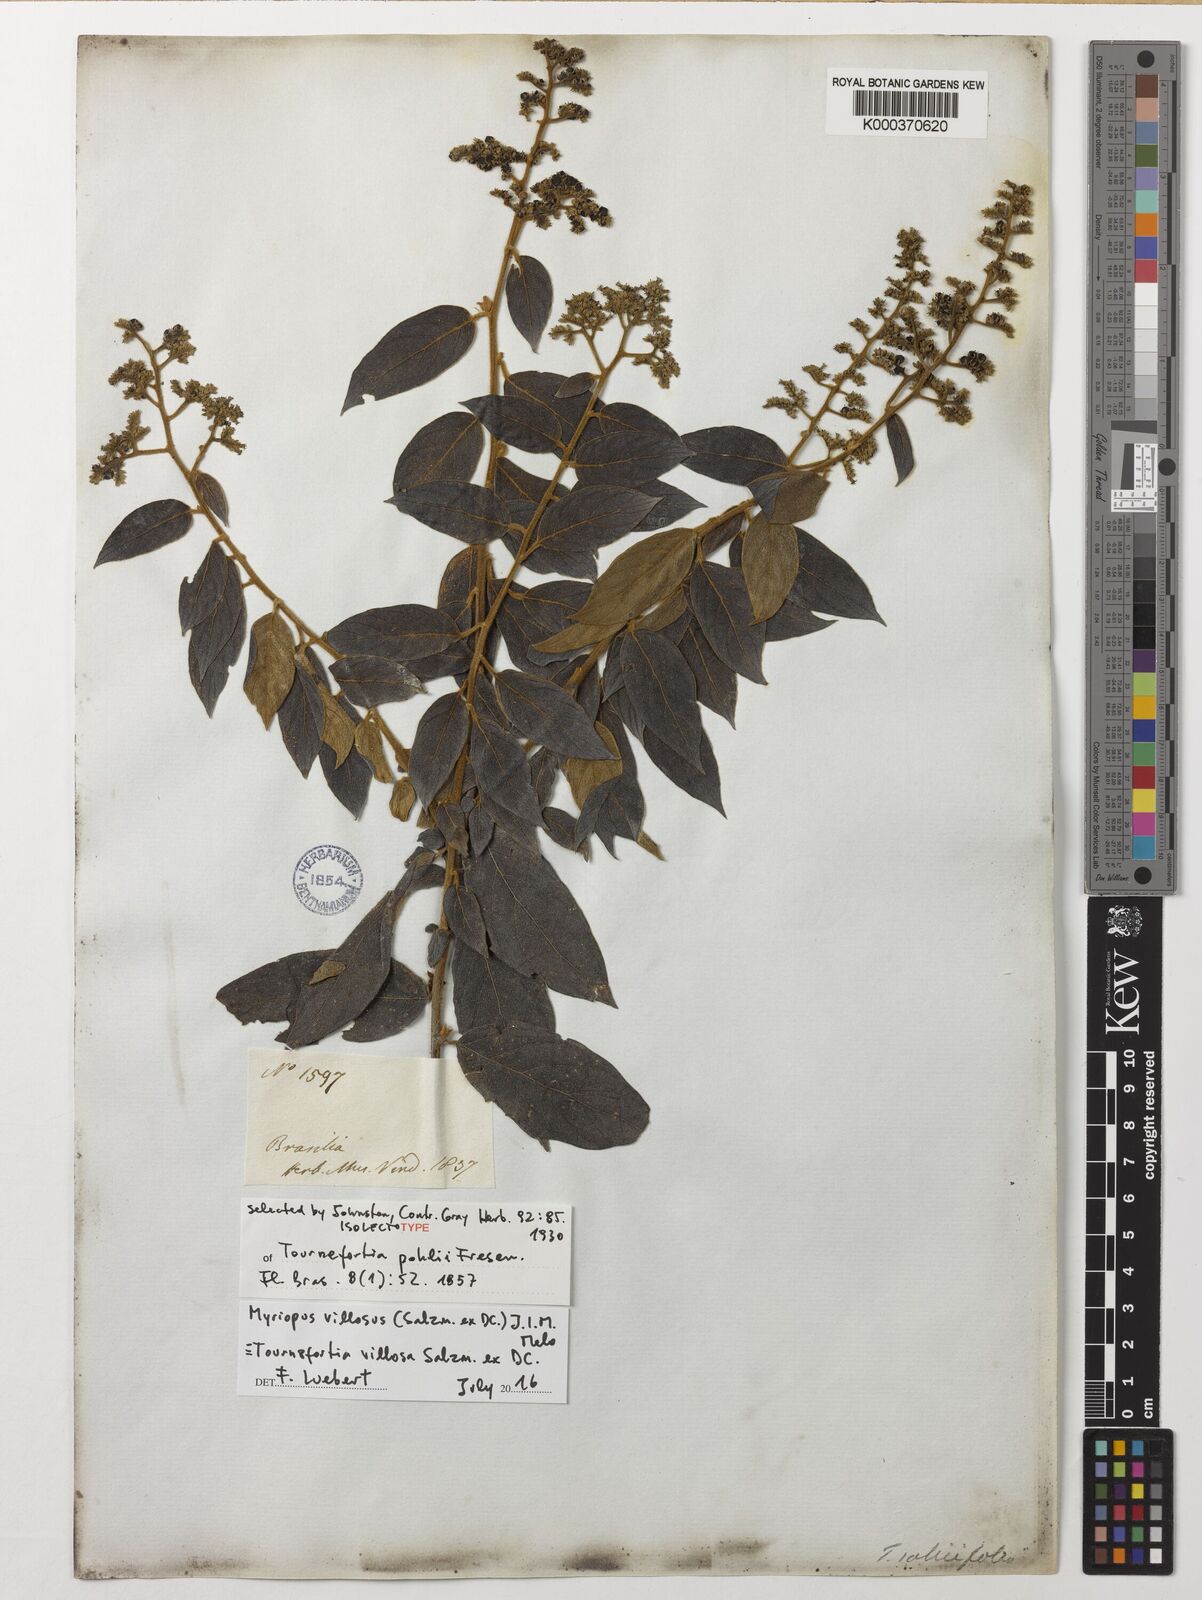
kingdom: Plantae
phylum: Tracheophyta
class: Magnoliopsida
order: Boraginales
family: Heliotropiaceae
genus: Tournefortia
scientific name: Tournefortia villosa
